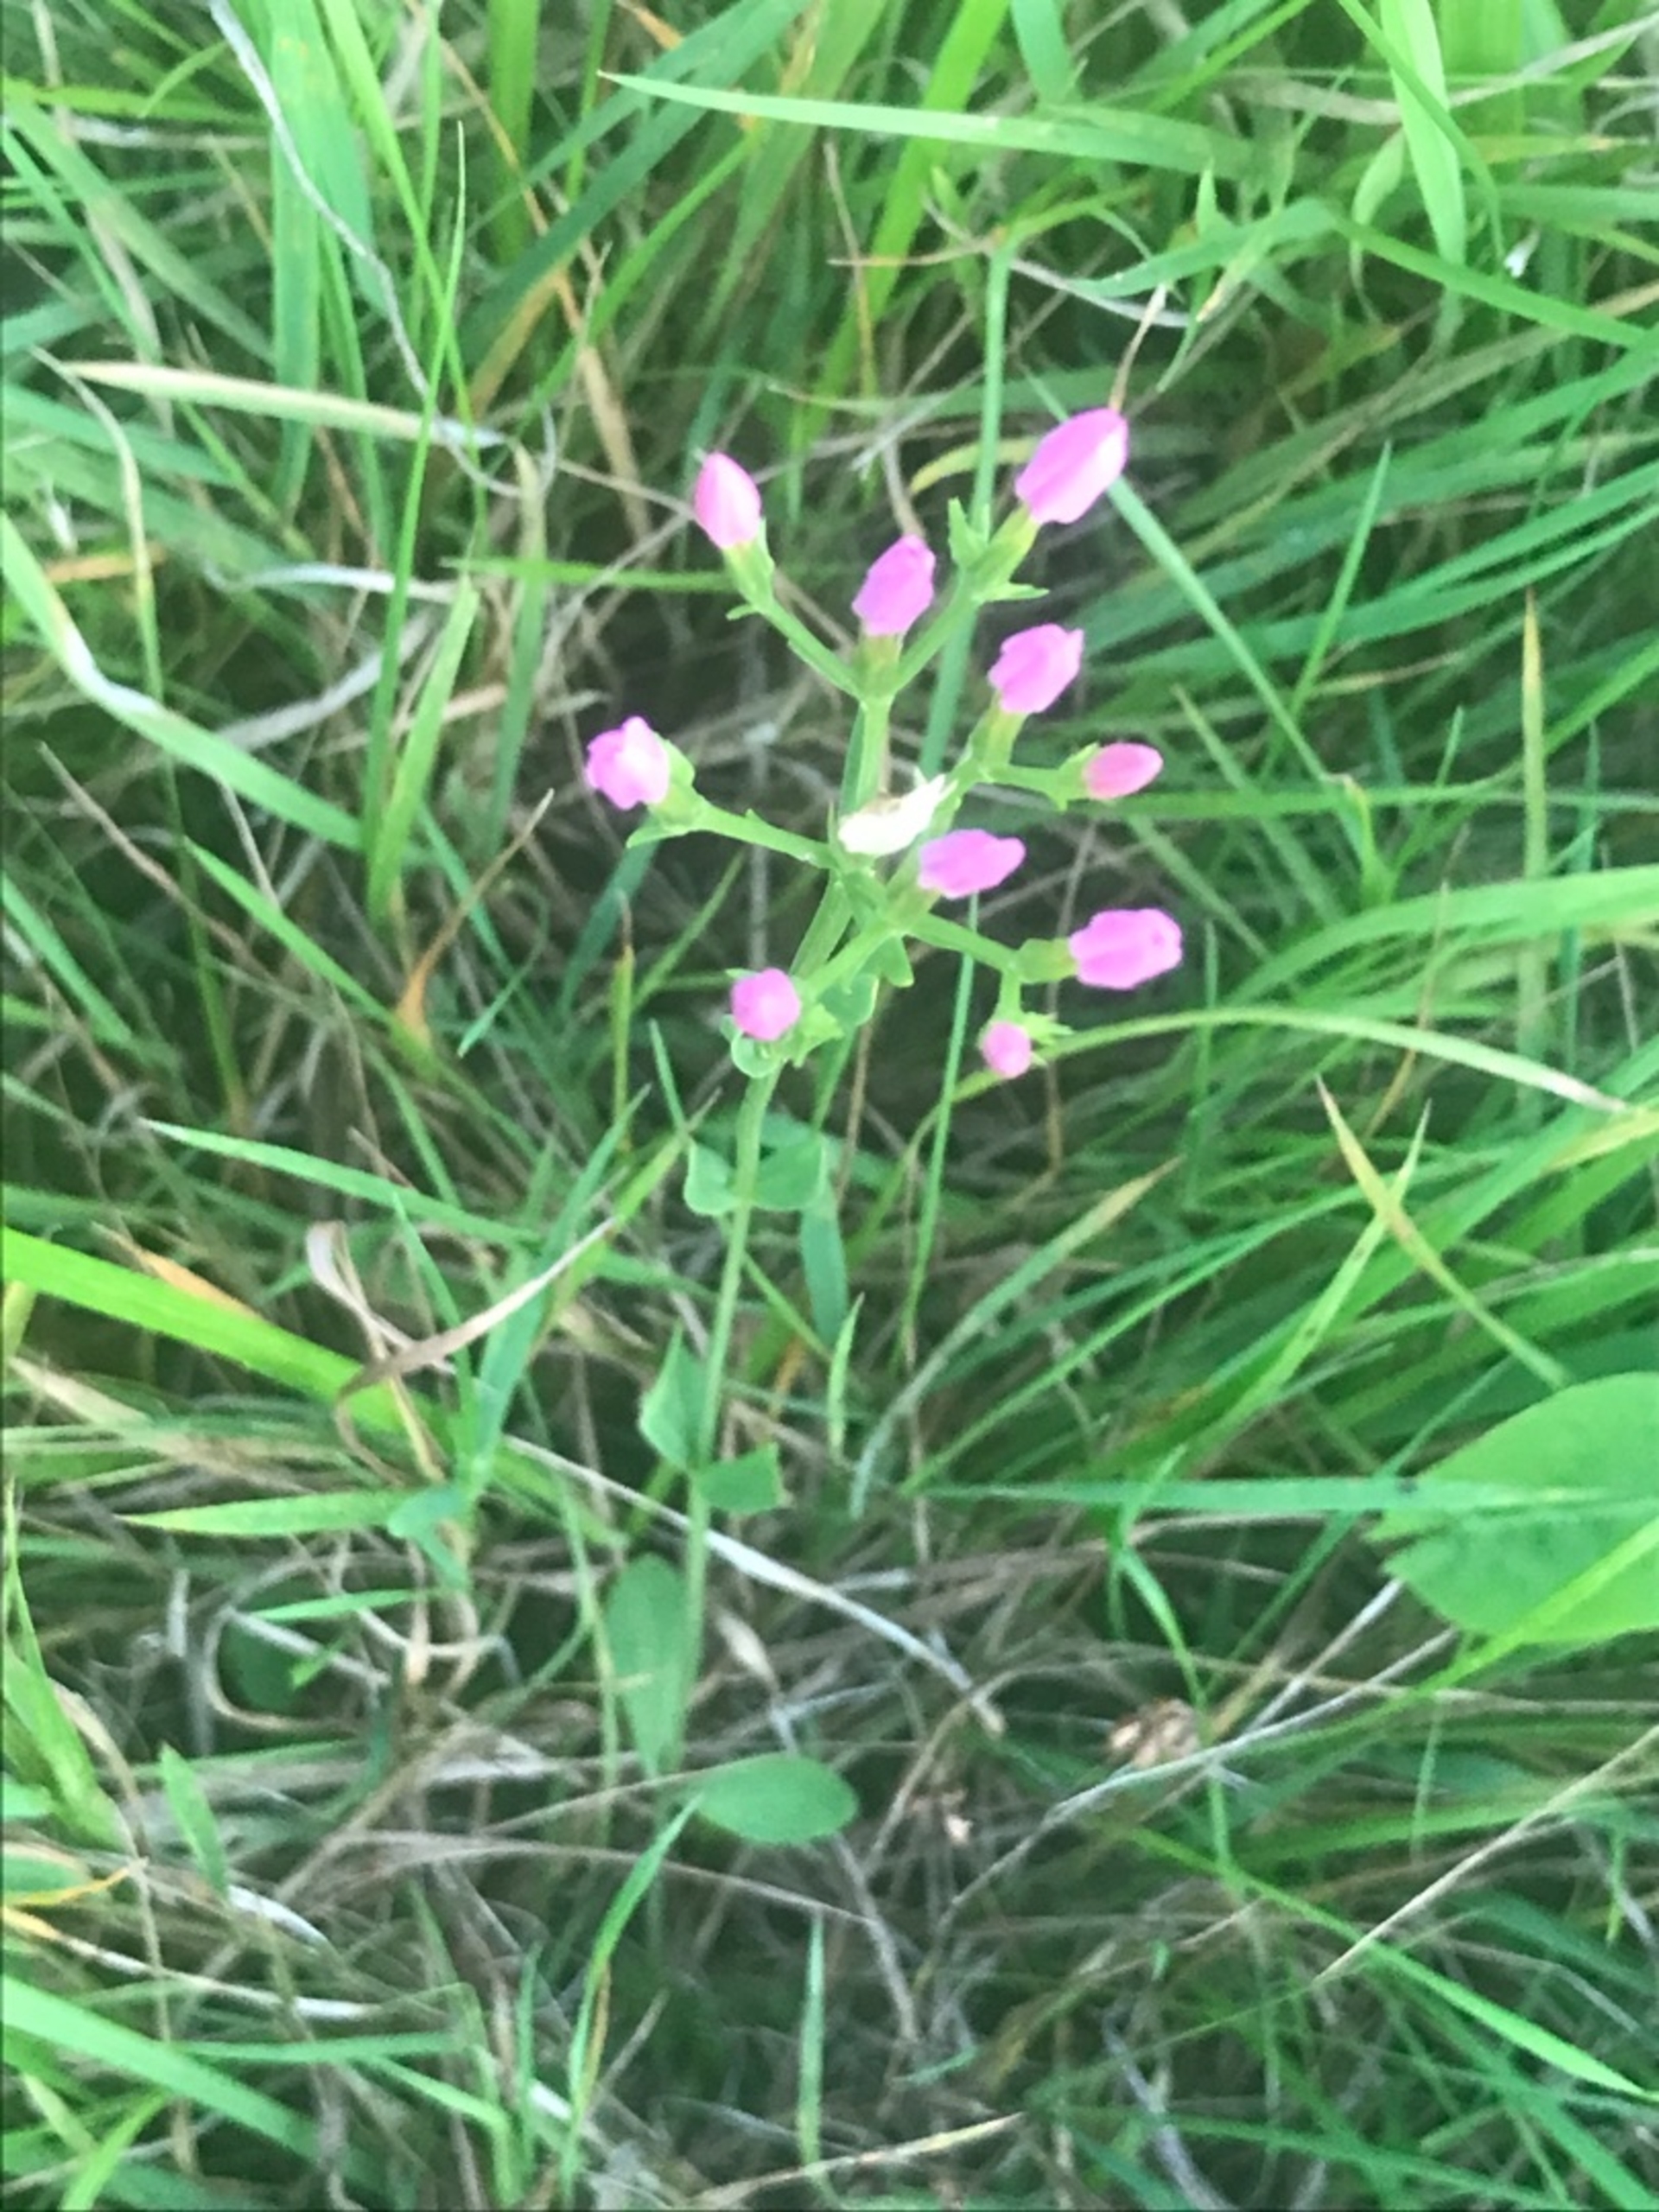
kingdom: Plantae
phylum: Tracheophyta
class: Magnoliopsida
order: Gentianales
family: Gentianaceae
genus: Centaurium
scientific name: Centaurium erythraea
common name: Mark-tusindgylden
